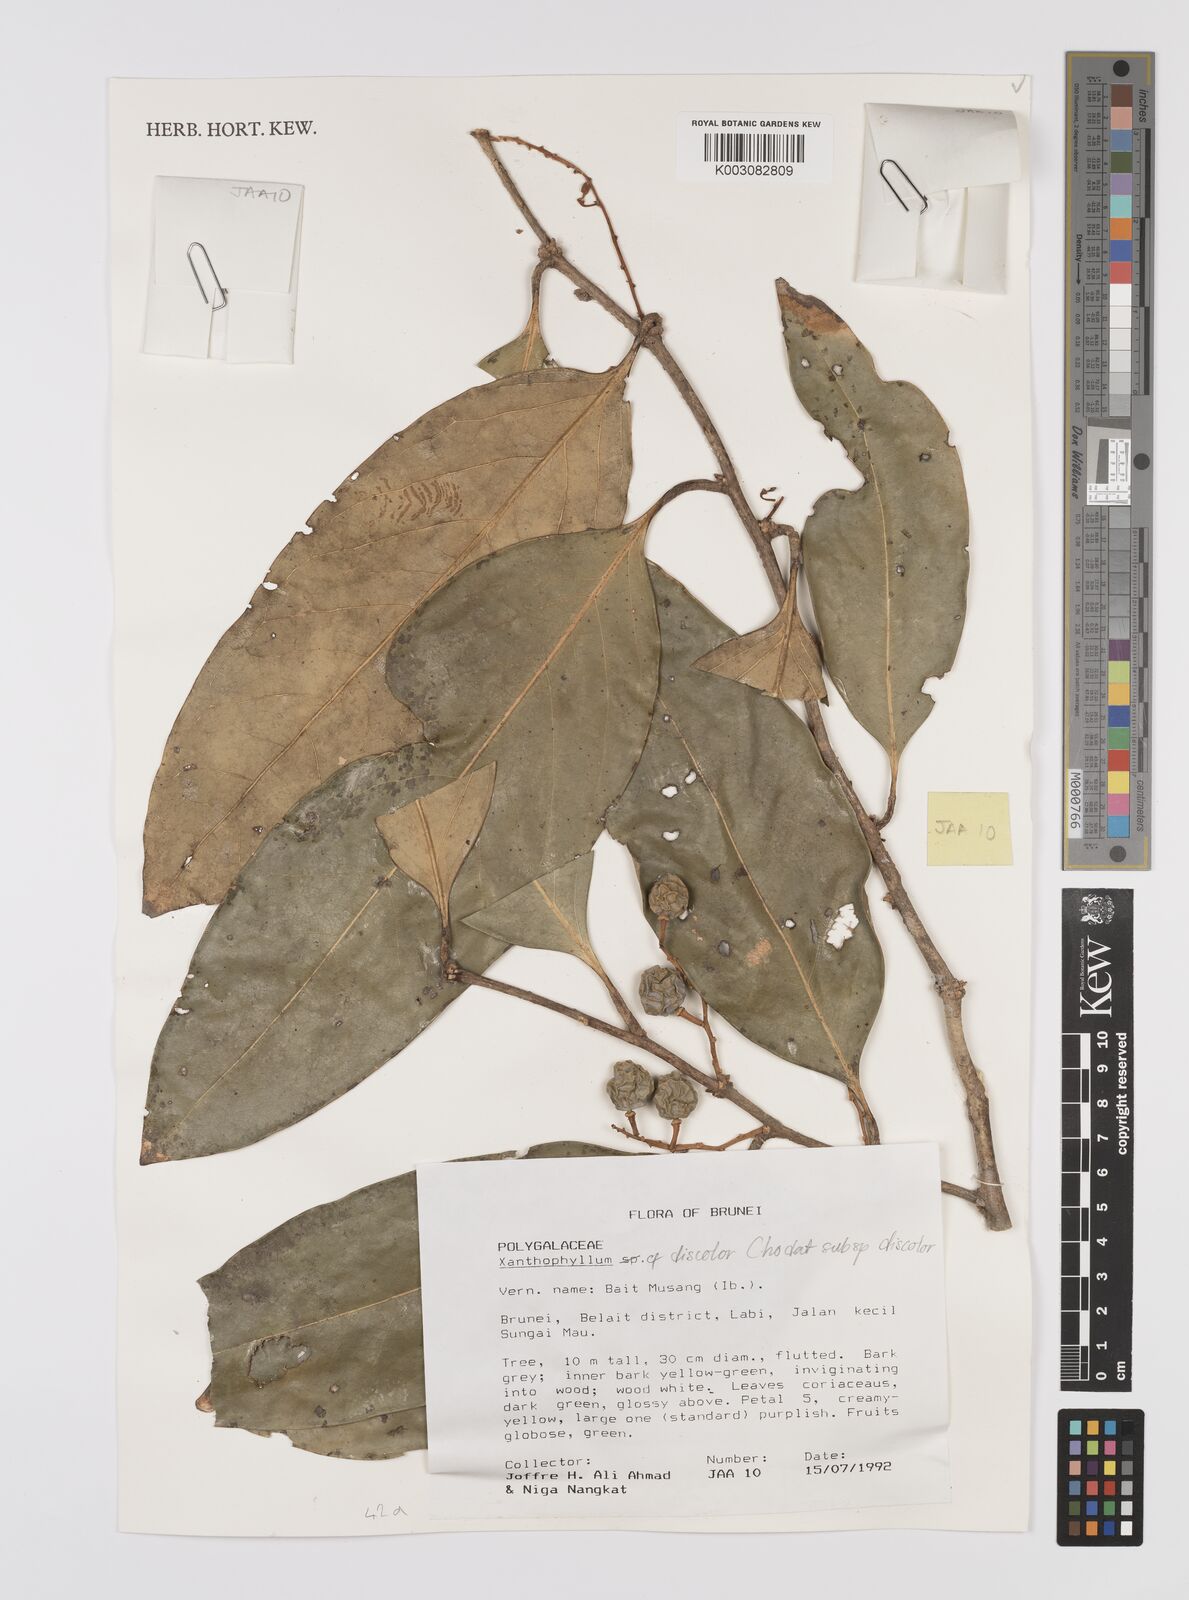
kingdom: Plantae
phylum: Tracheophyta
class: Magnoliopsida
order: Fabales
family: Polygalaceae
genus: Xanthophyllum
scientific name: Xanthophyllum discolor
